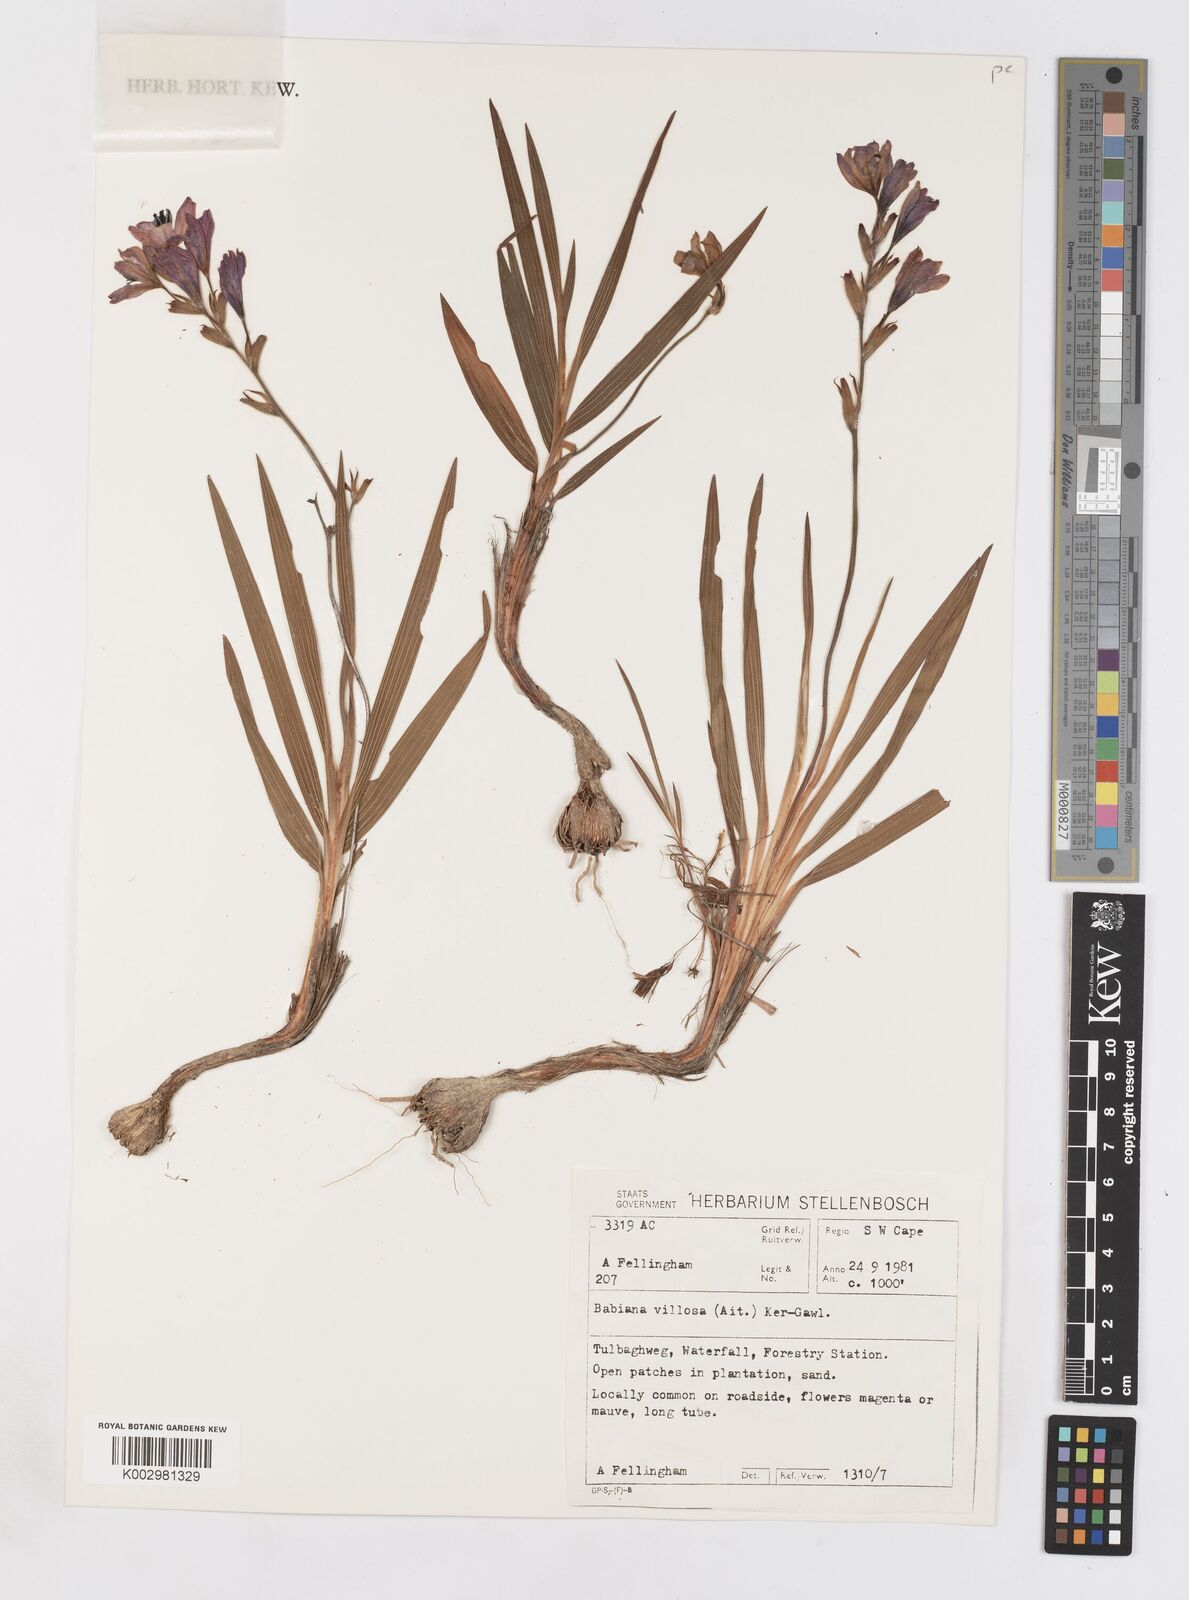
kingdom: Plantae
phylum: Tracheophyta
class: Liliopsida
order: Asparagales
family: Iridaceae
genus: Babiana
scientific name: Babiana villosa
